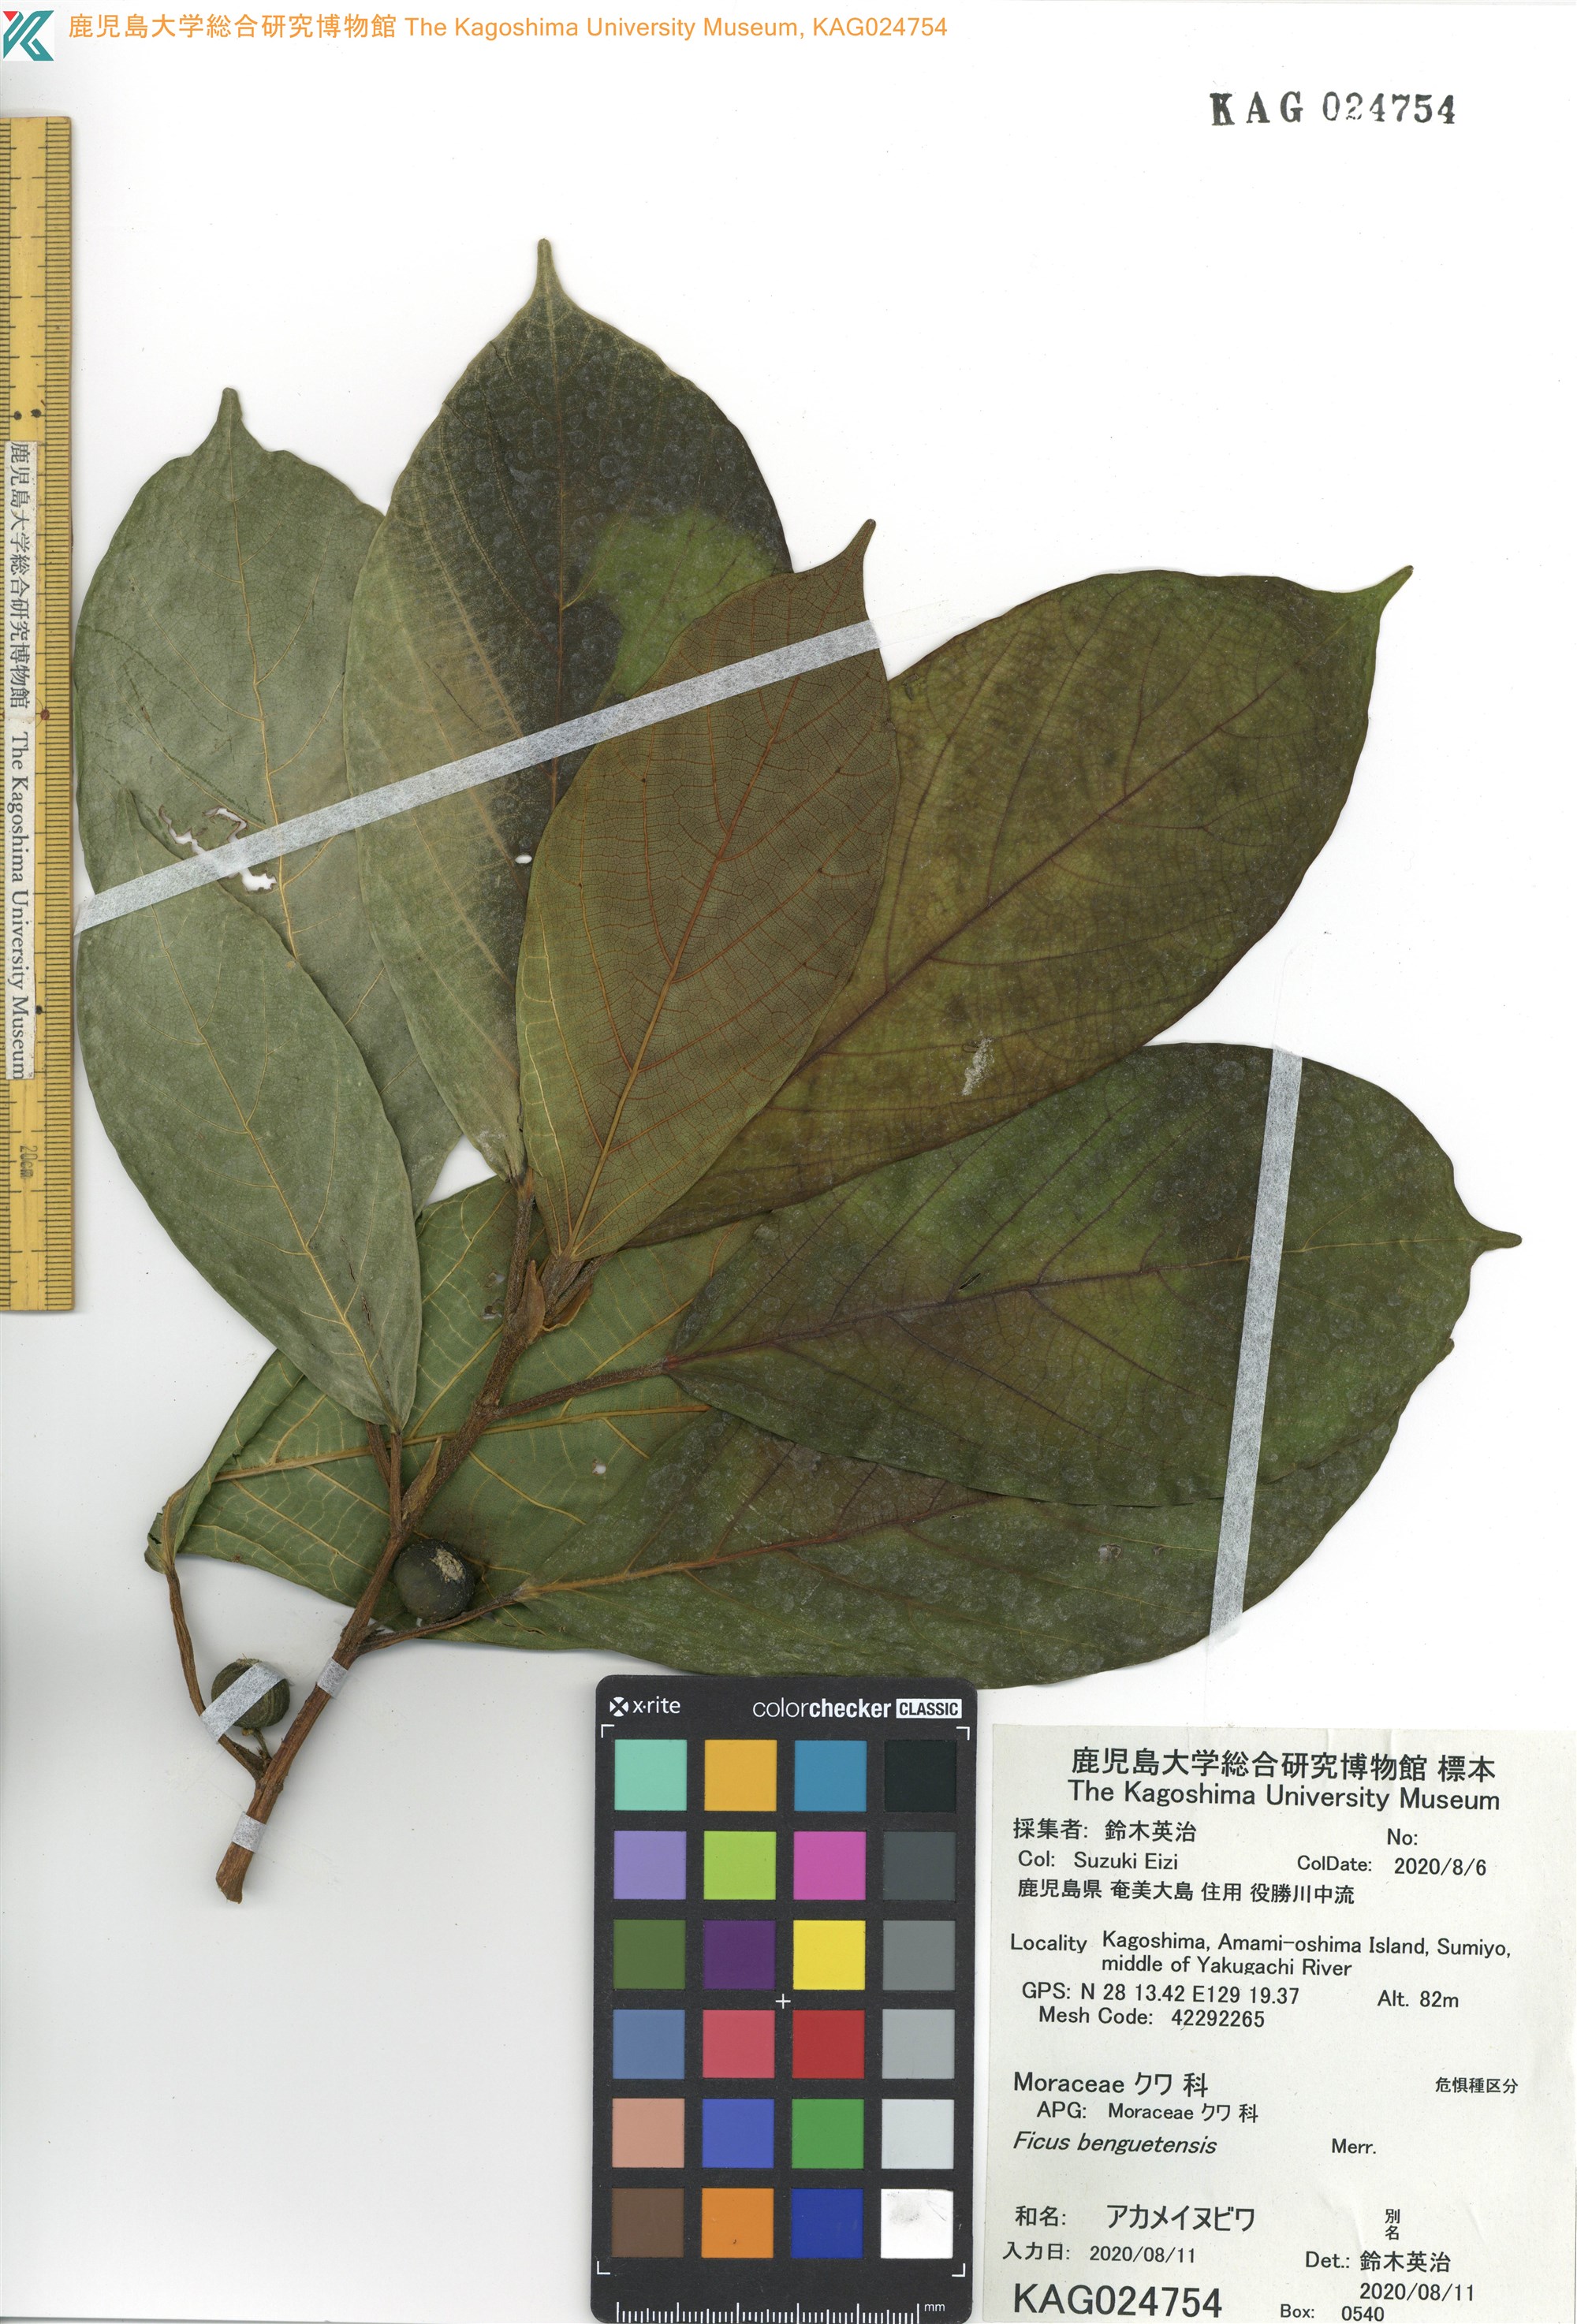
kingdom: Plantae
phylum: Tracheophyta
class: Magnoliopsida
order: Rosales
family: Moraceae
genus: Ficus
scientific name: Ficus benguetensis
